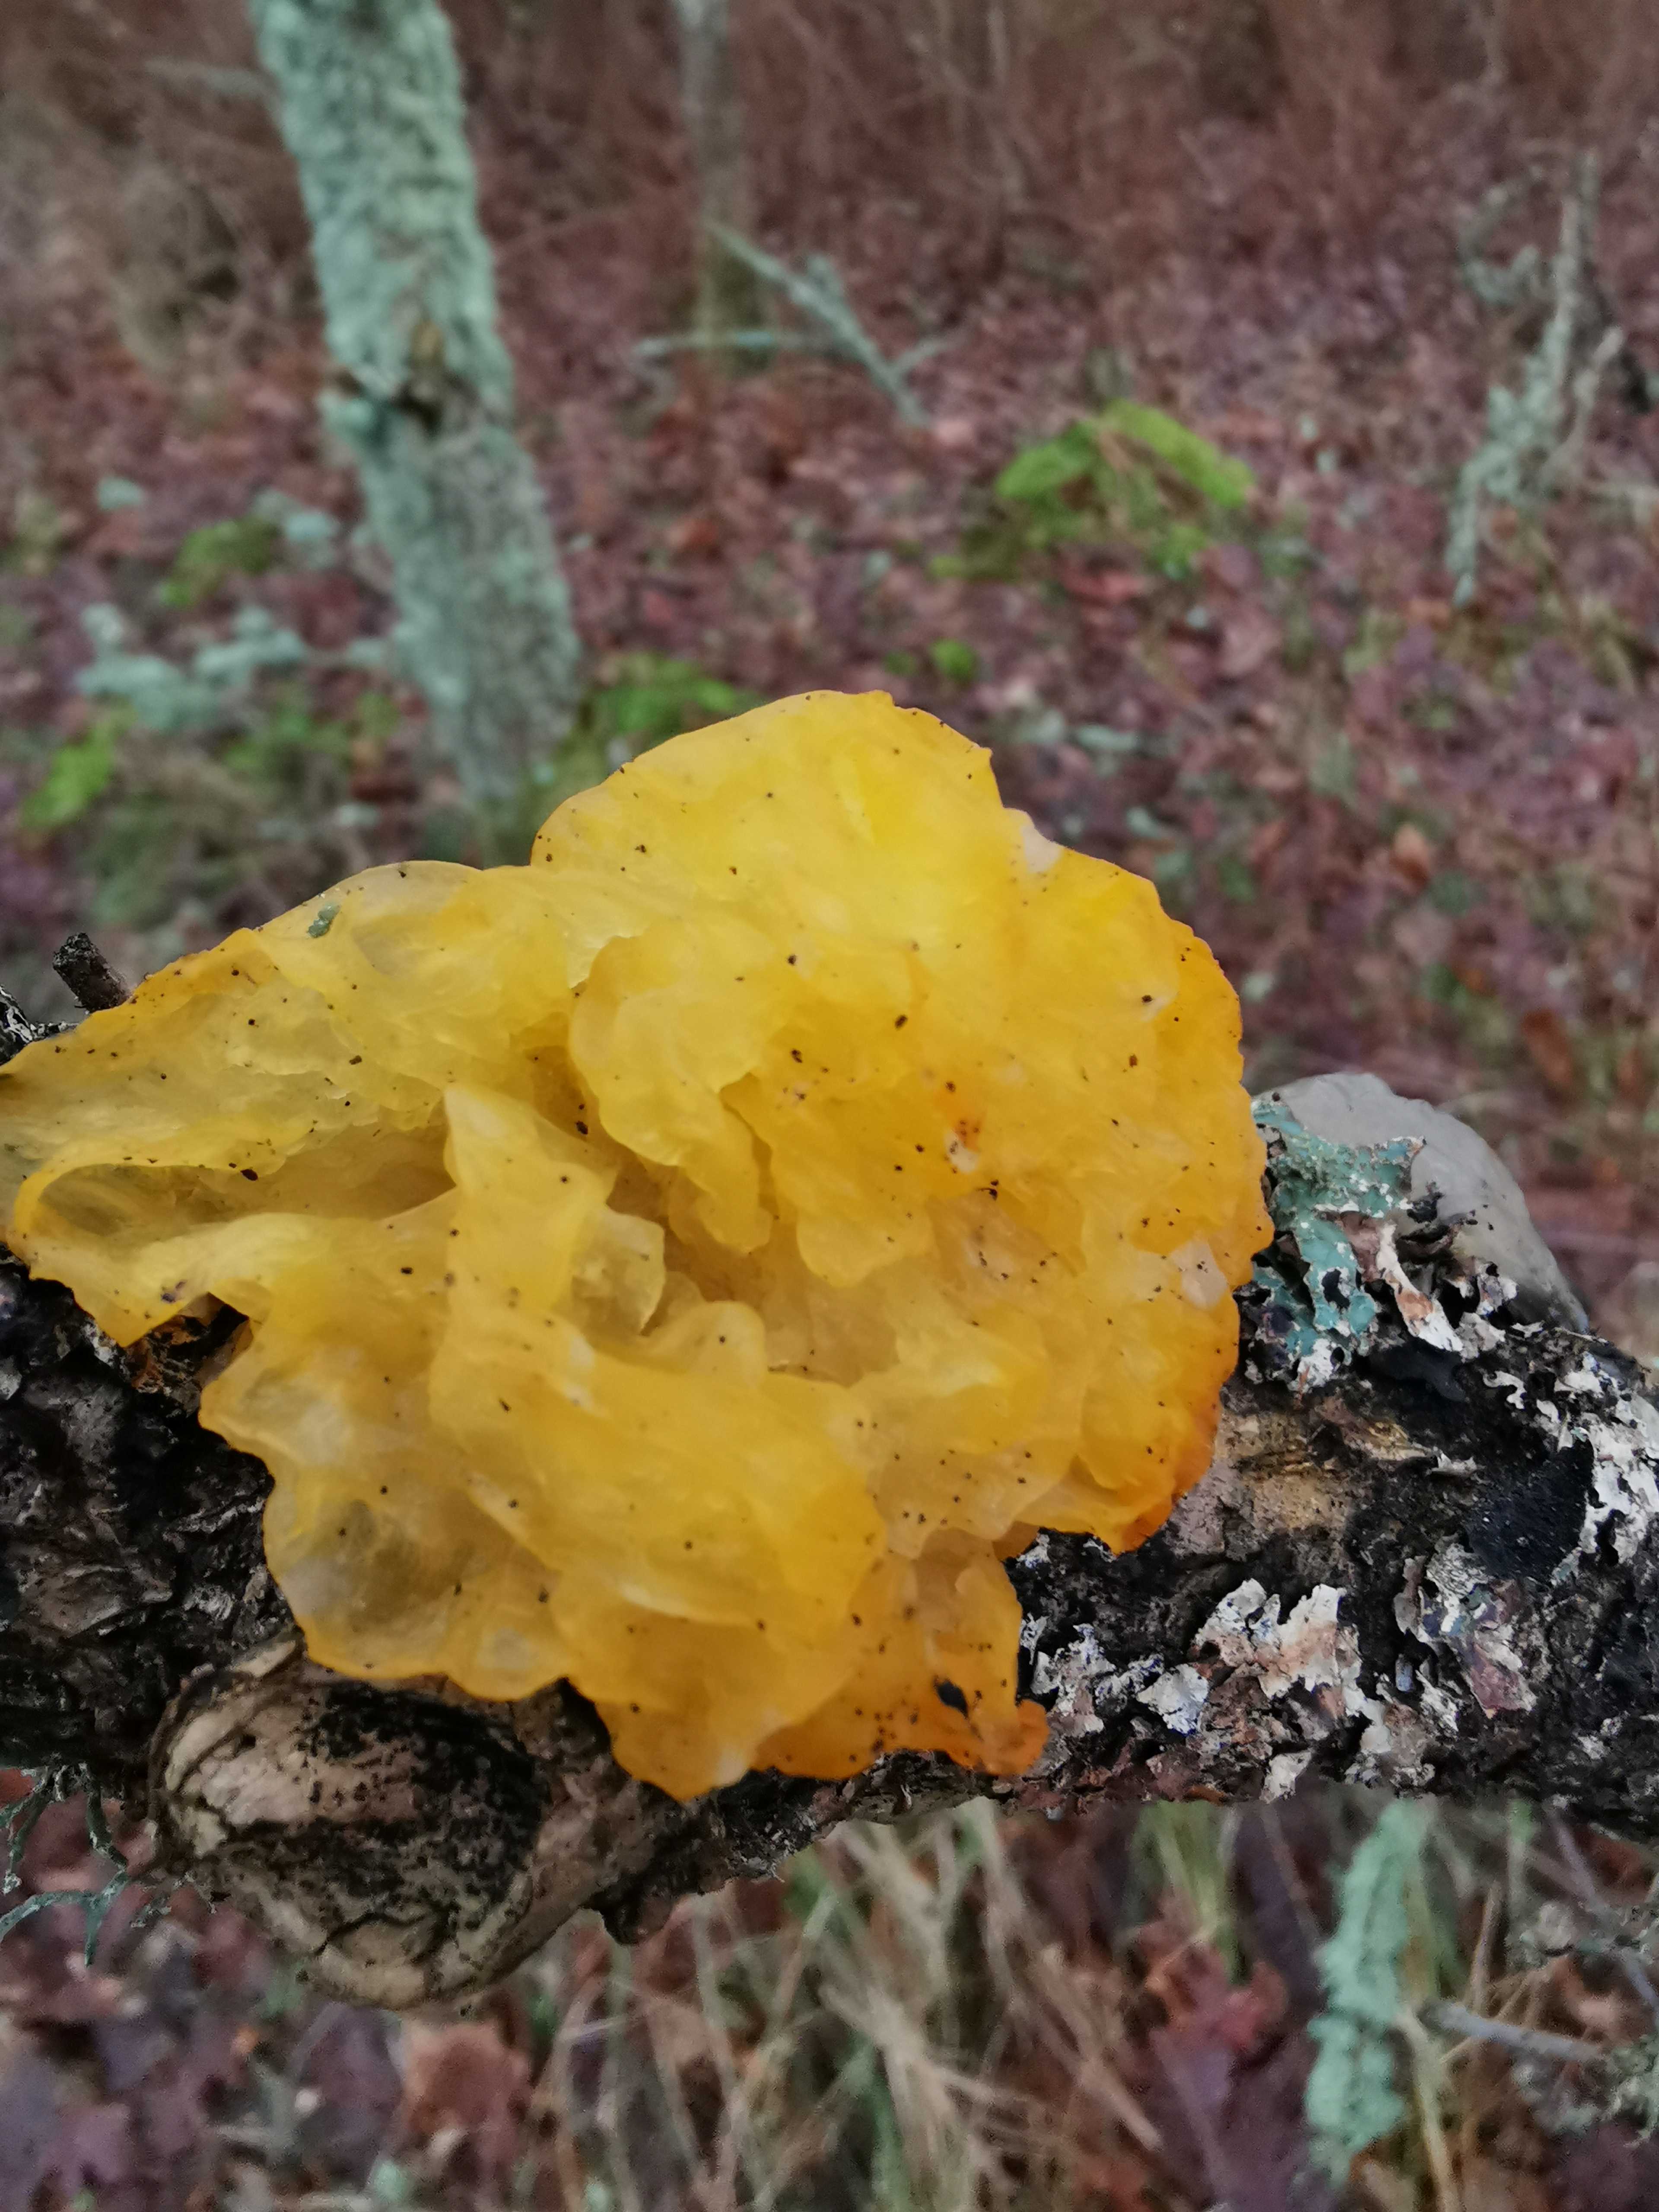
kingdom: Fungi
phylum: Basidiomycota
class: Tremellomycetes
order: Tremellales
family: Tremellaceae
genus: Tremella
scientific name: Tremella mesenterica
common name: gul bævresvamp
